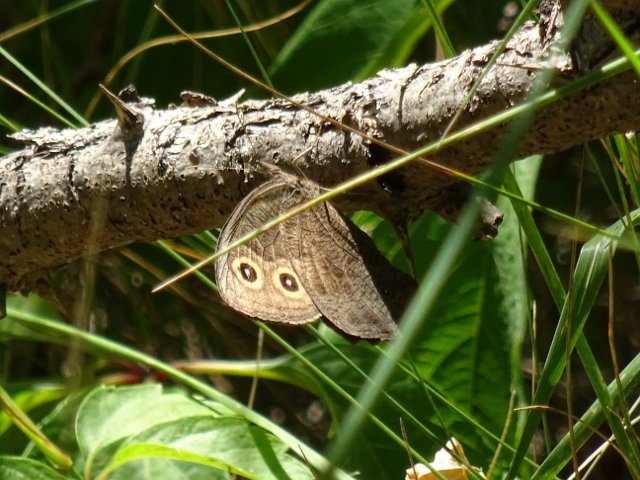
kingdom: Animalia
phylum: Arthropoda
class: Insecta
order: Lepidoptera
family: Nymphalidae
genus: Cercyonis
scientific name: Cercyonis pegala
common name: Common Wood-Nymph
